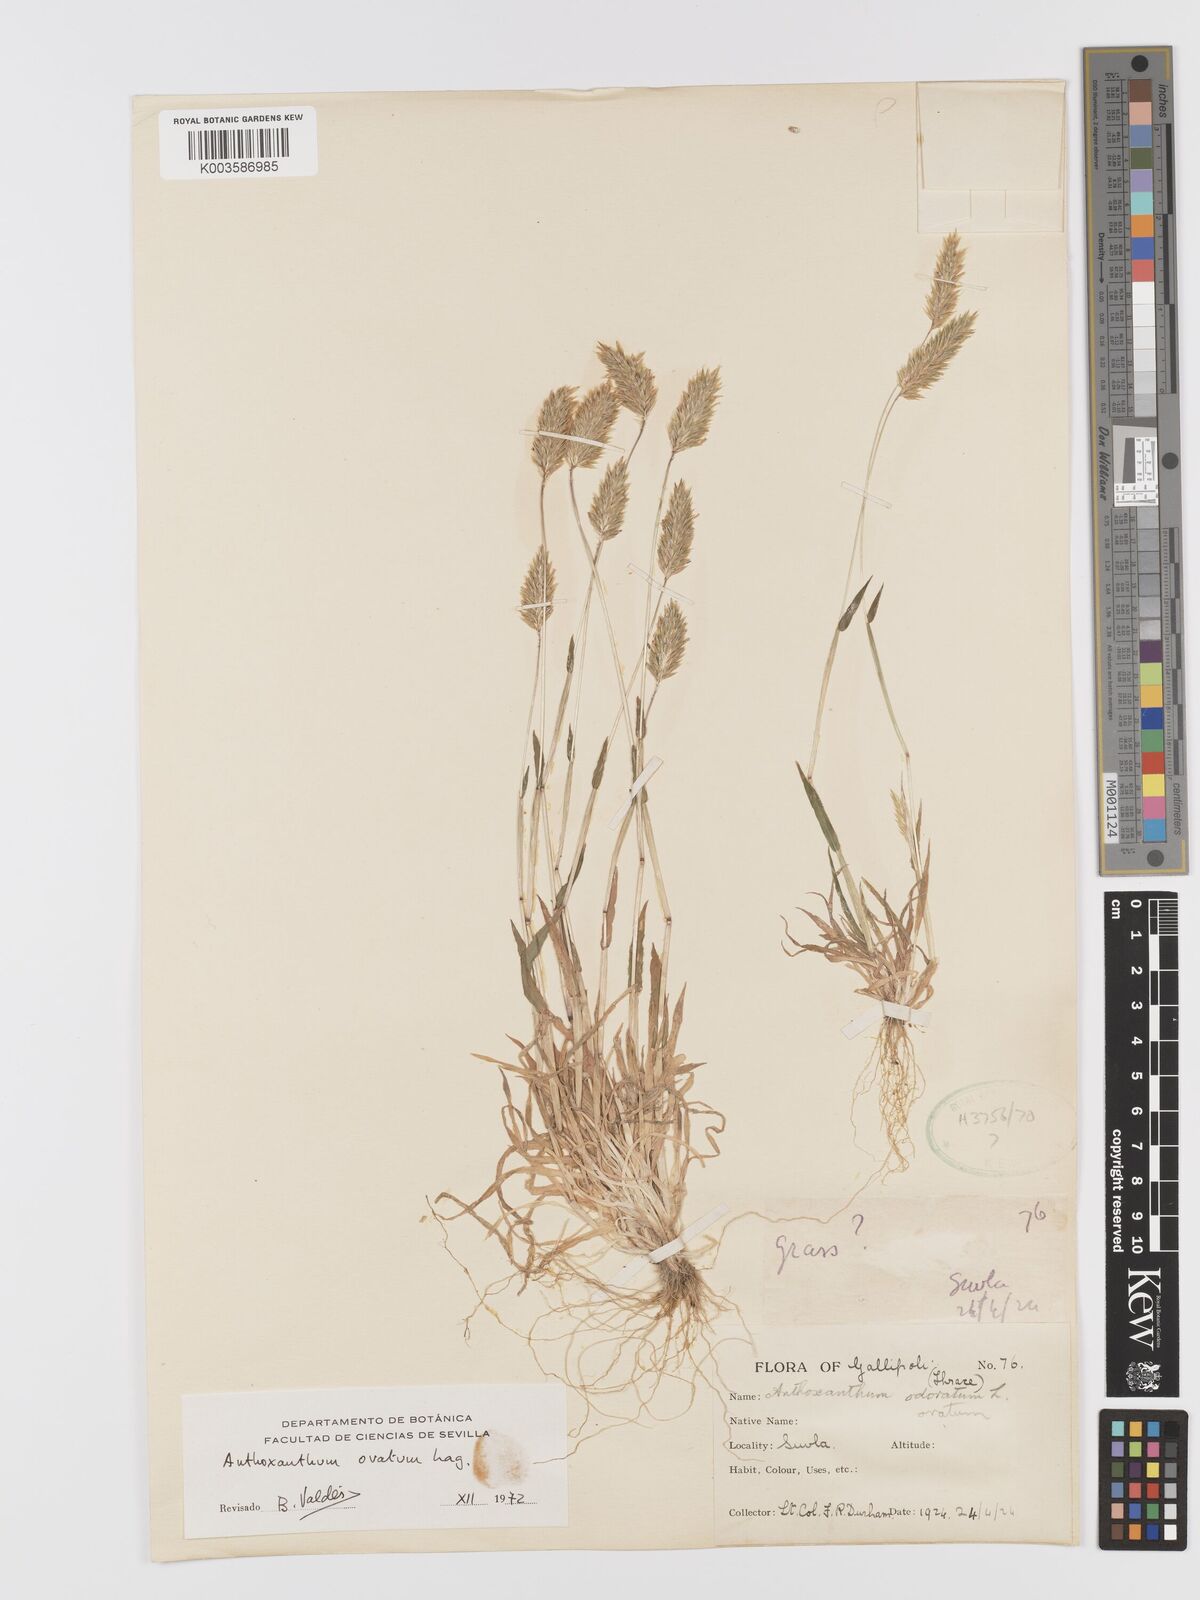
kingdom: Plantae
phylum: Tracheophyta
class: Liliopsida
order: Poales
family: Poaceae
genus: Anthoxanthum
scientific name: Anthoxanthum ovatum
